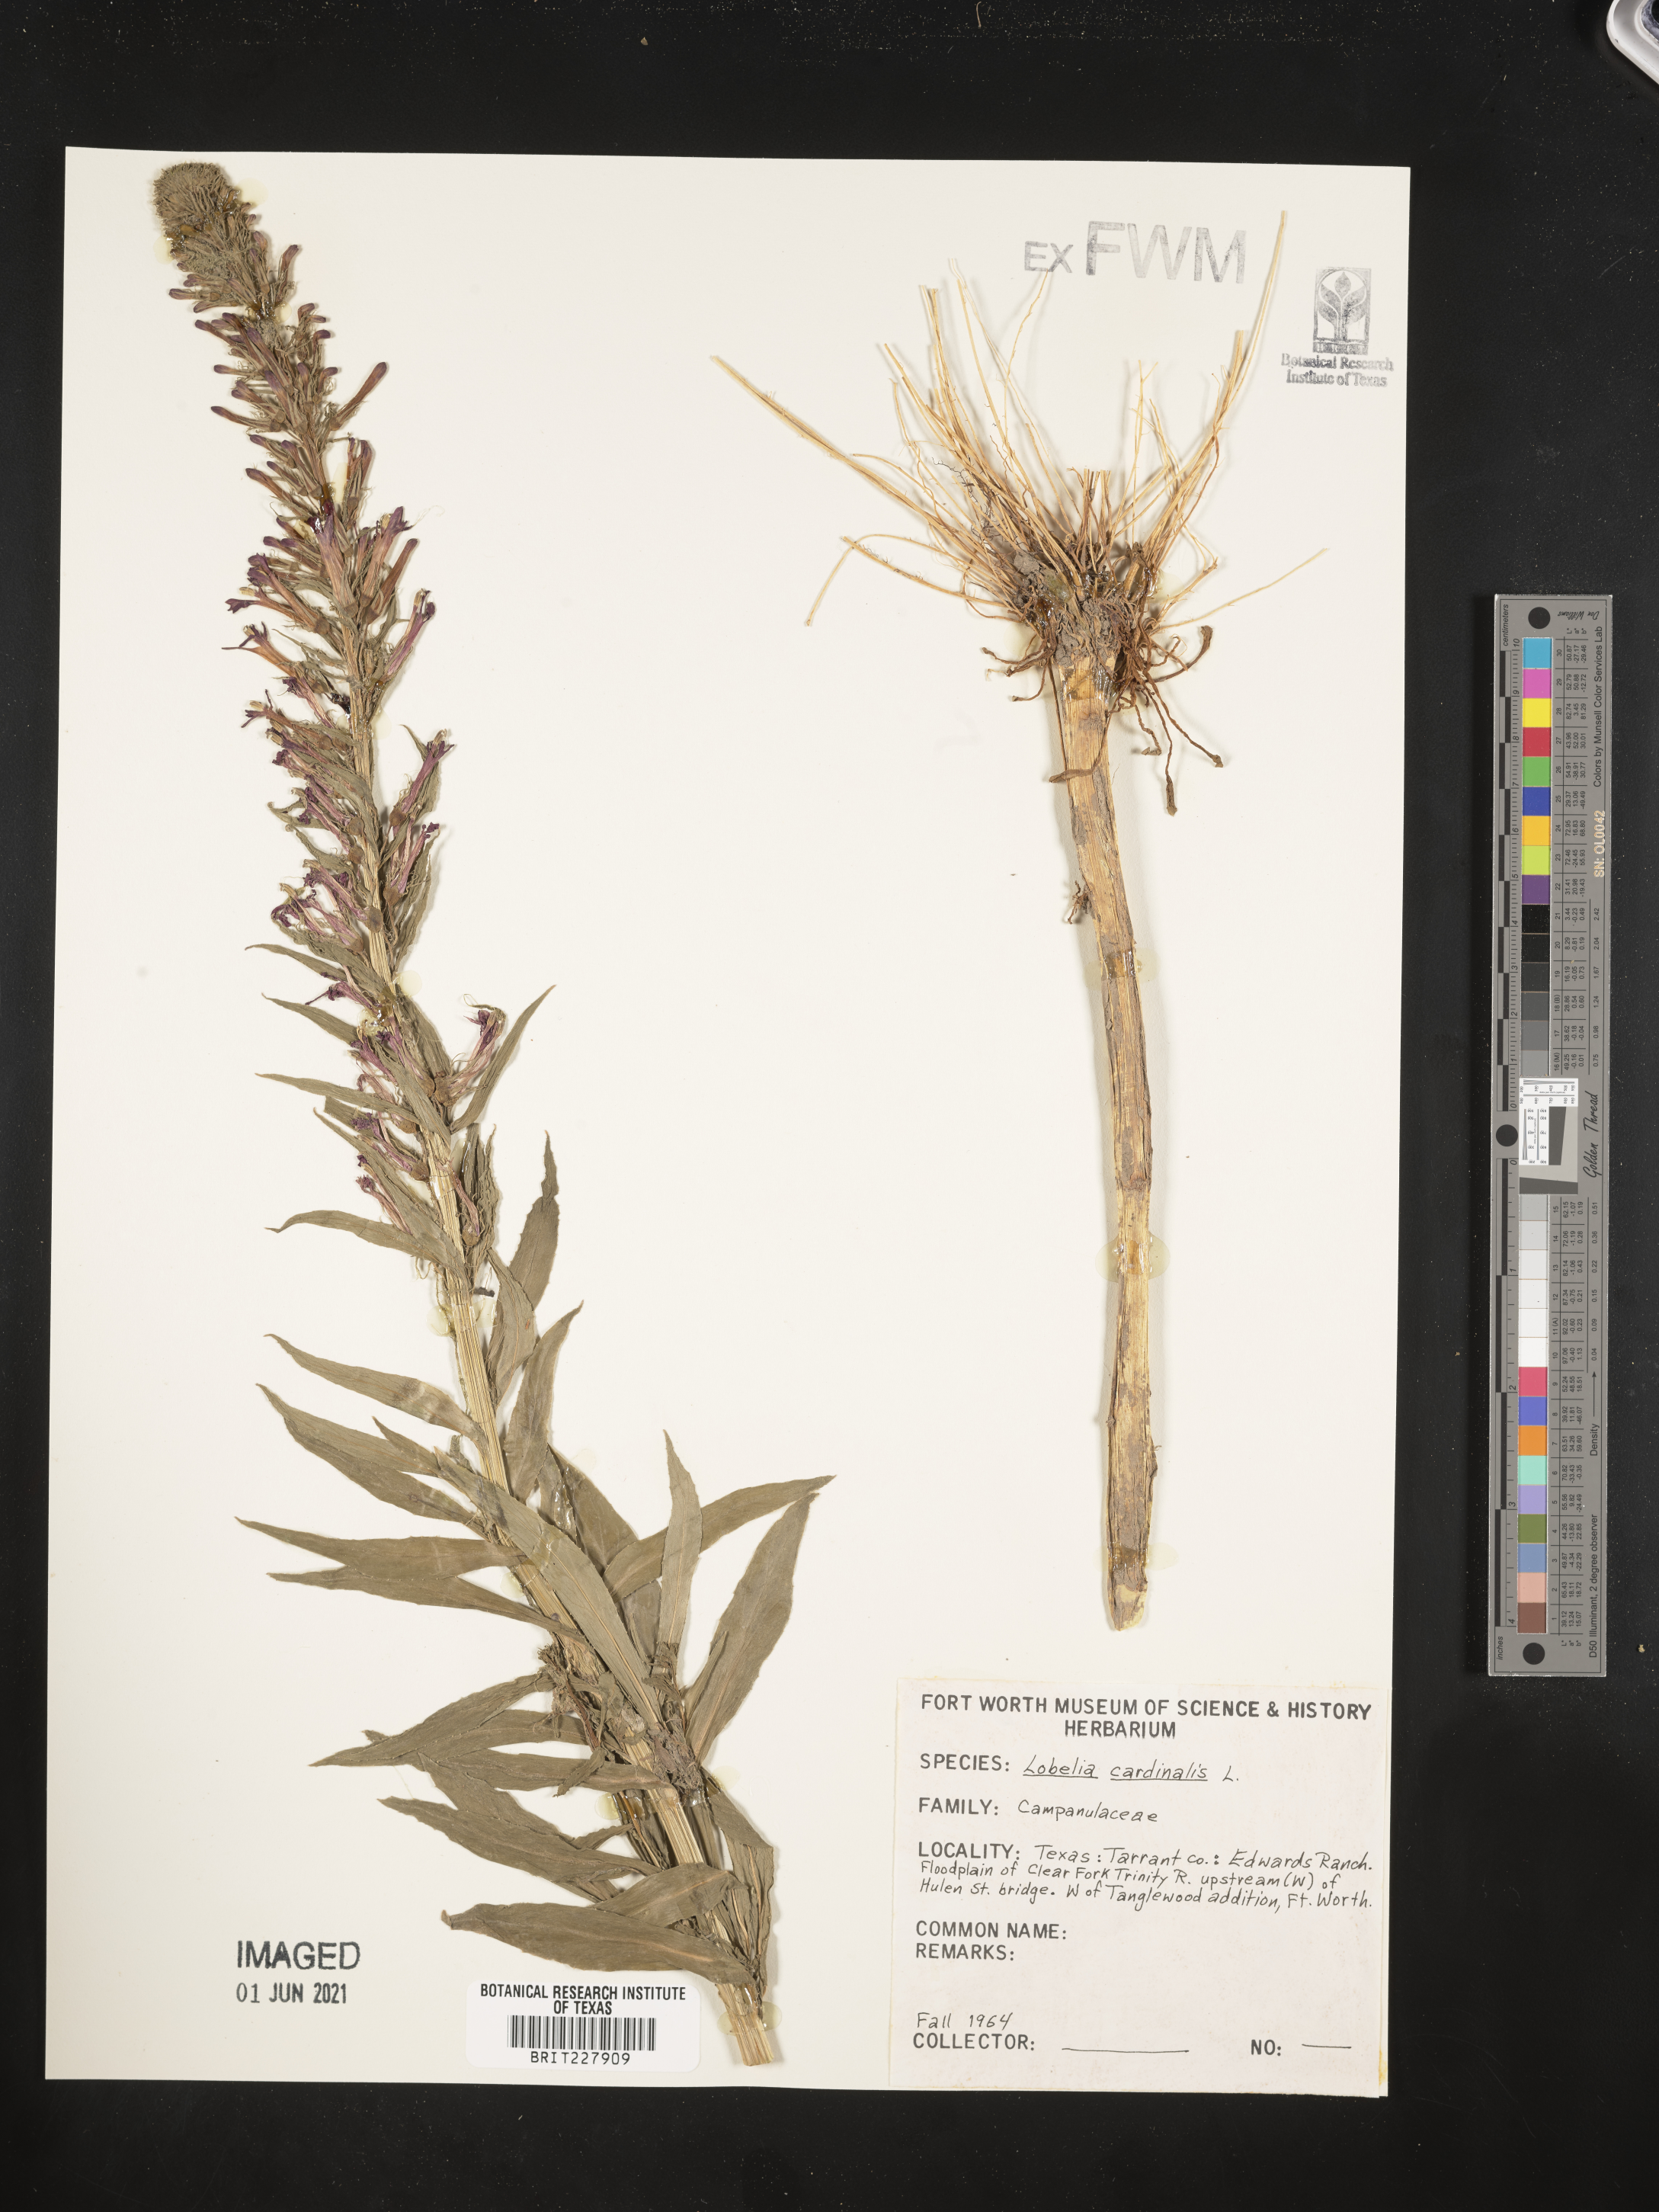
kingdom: Plantae
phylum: Tracheophyta
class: Magnoliopsida
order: Asterales
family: Campanulaceae
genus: Lobelia
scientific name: Lobelia cardinalis
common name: Cardinal flower
